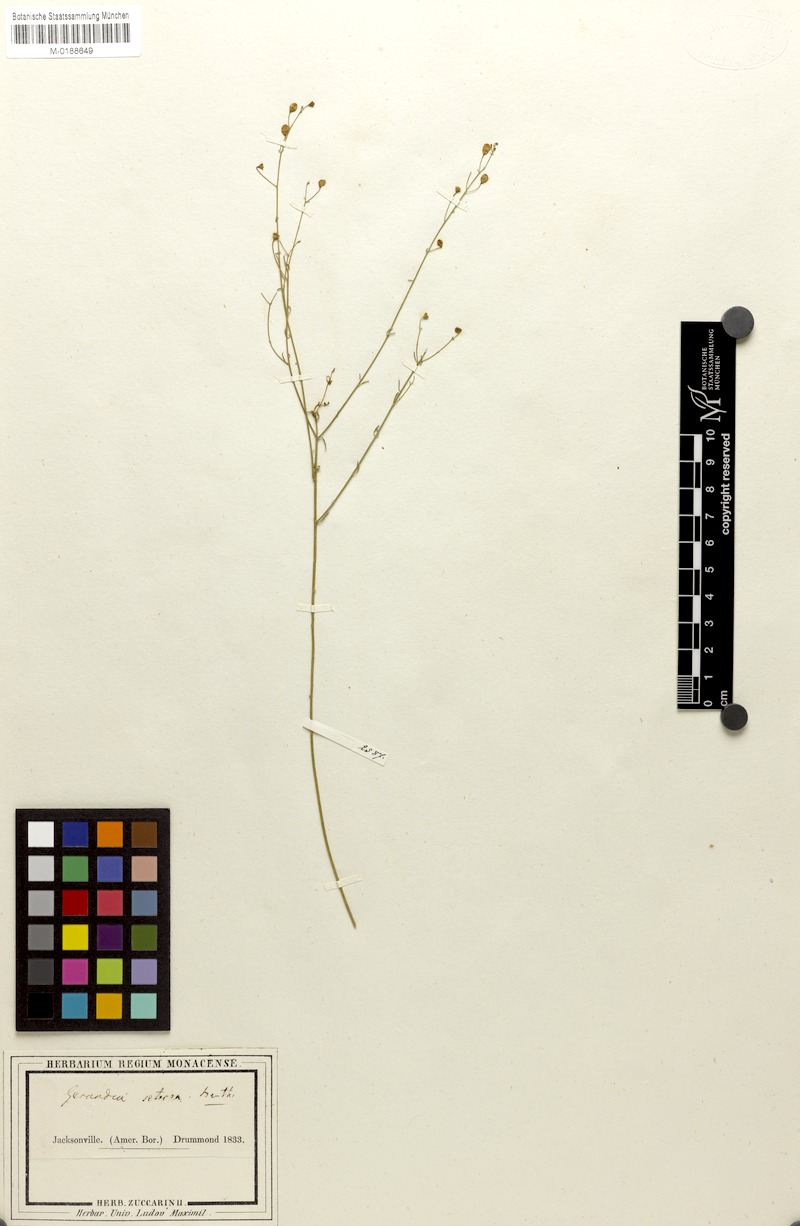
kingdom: Plantae
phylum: Tracheophyta
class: Magnoliopsida
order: Lamiales
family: Orobanchaceae
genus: Agalinis
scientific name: Agalinis setacea
